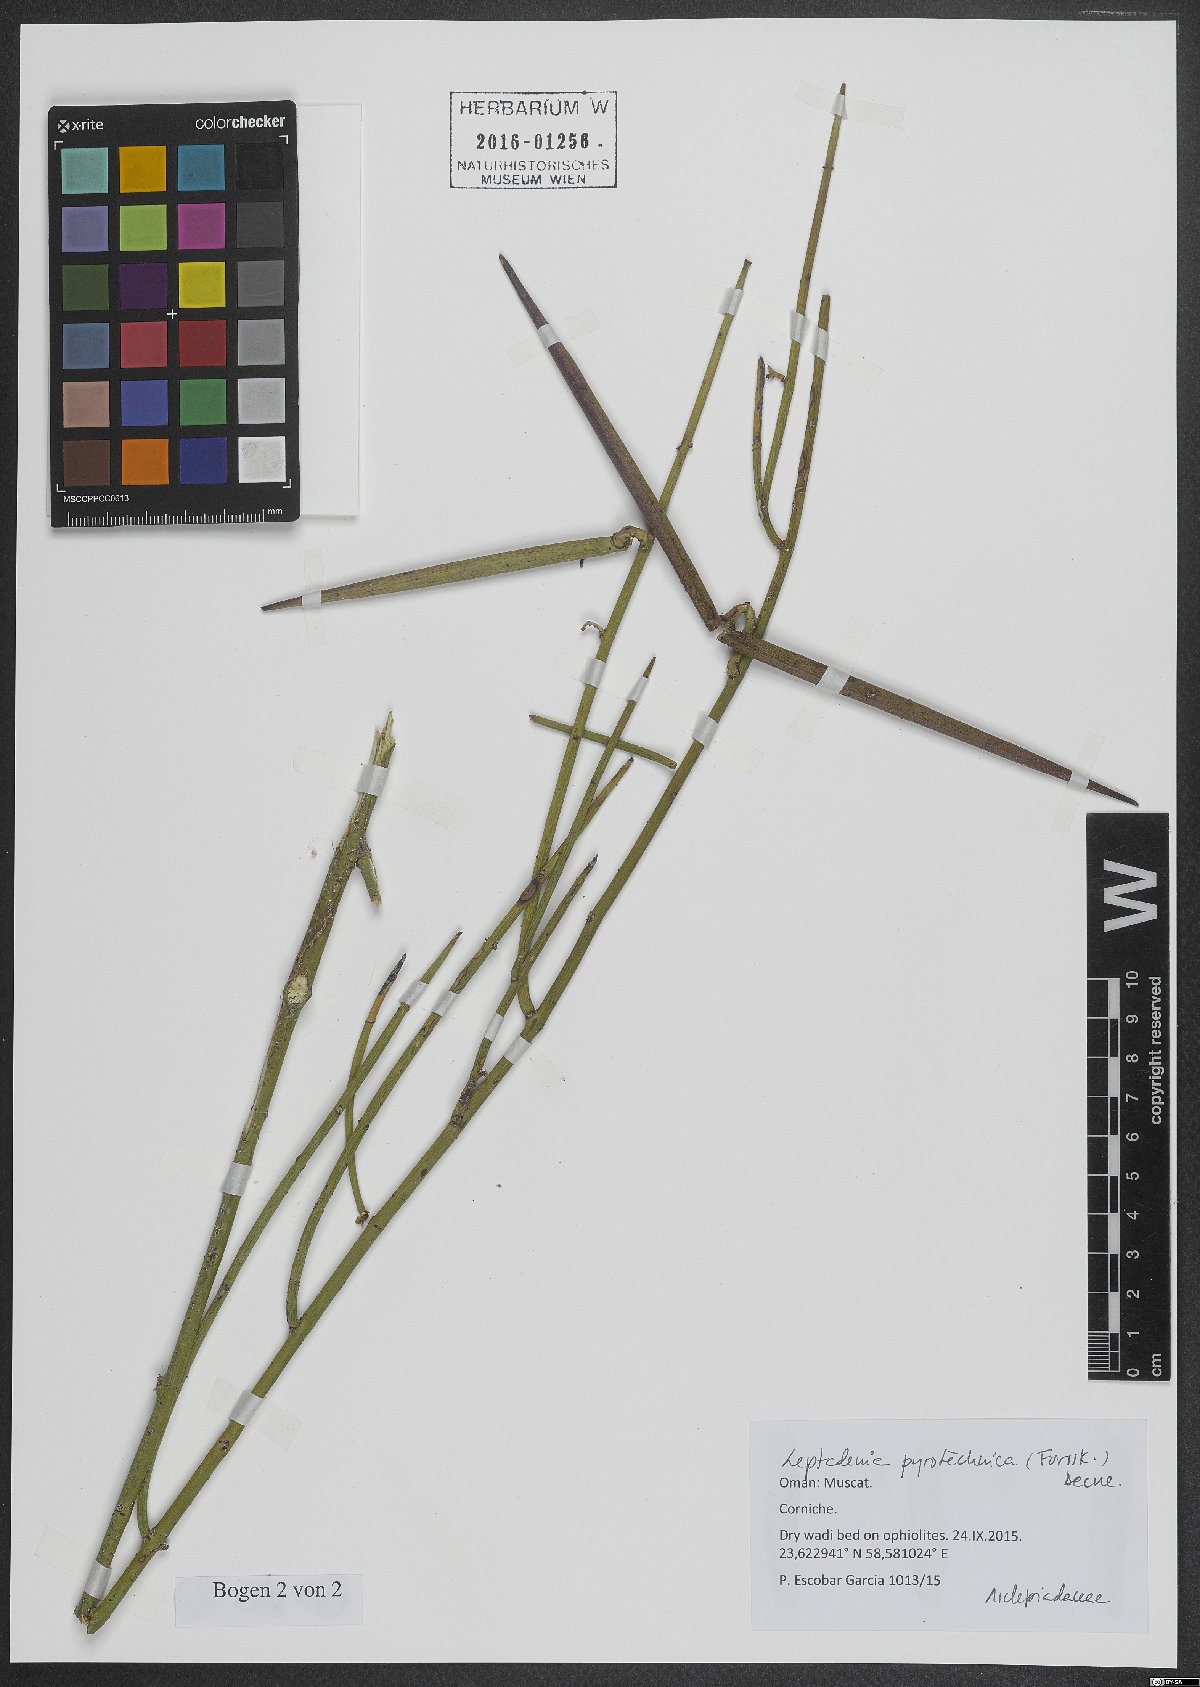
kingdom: Plantae
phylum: Tracheophyta
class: Magnoliopsida
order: Gentianales
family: Apocynaceae
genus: Leptadenia
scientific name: Leptadenia pyrotechnica
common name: Broom brush
